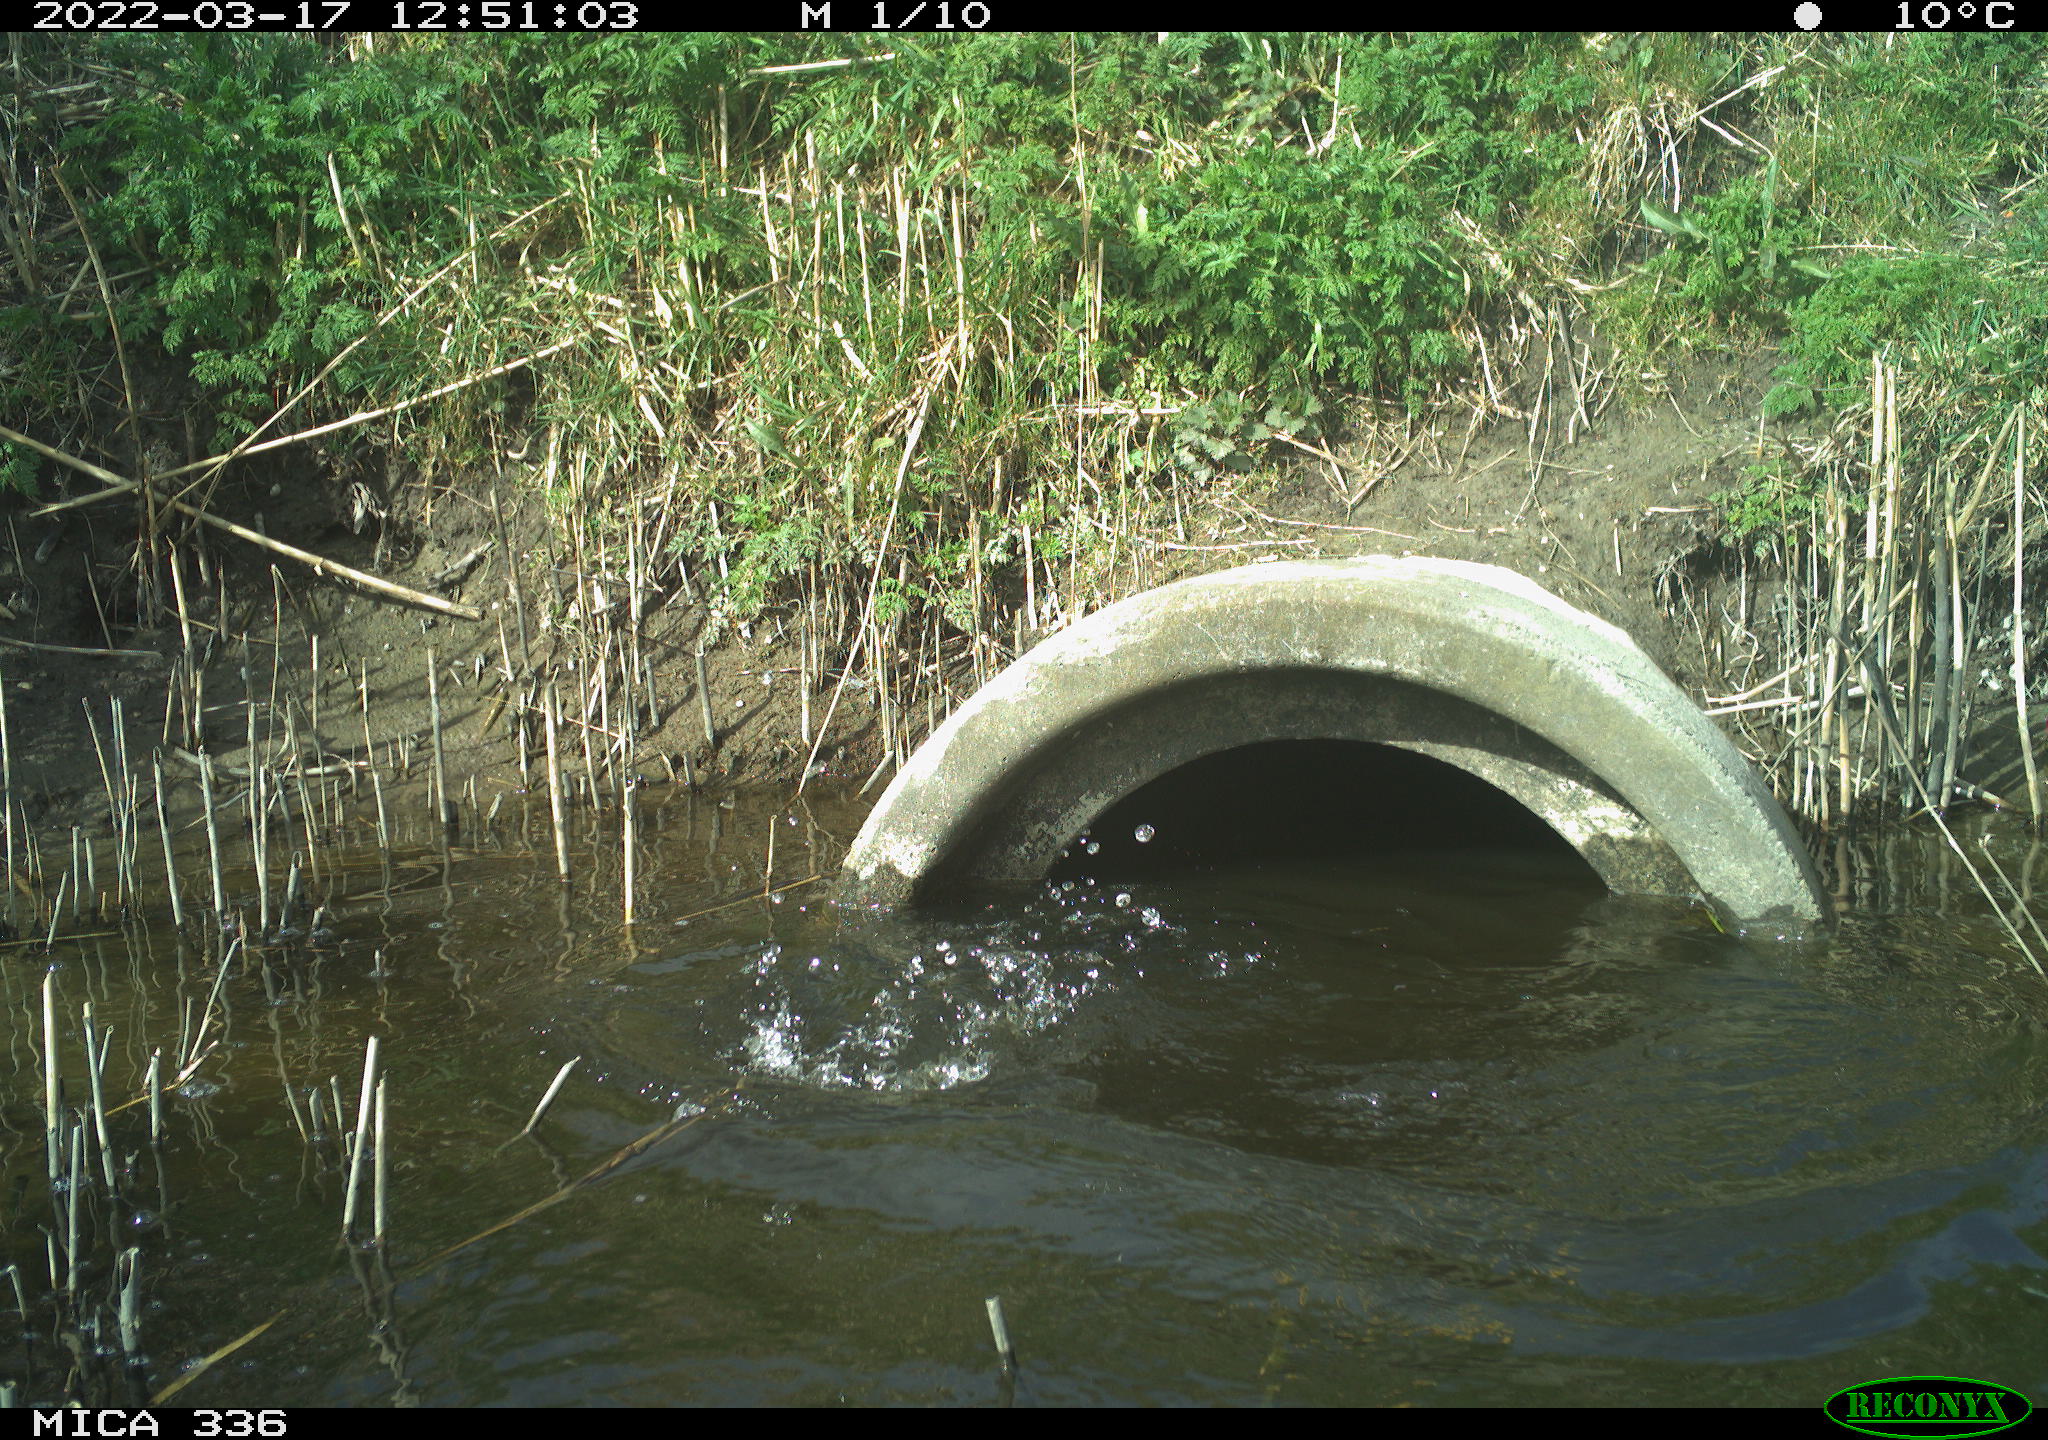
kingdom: Animalia
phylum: Chordata
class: Aves
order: Suliformes
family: Phalacrocoracidae
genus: Phalacrocorax
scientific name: Phalacrocorax carbo
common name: Great cormorant
